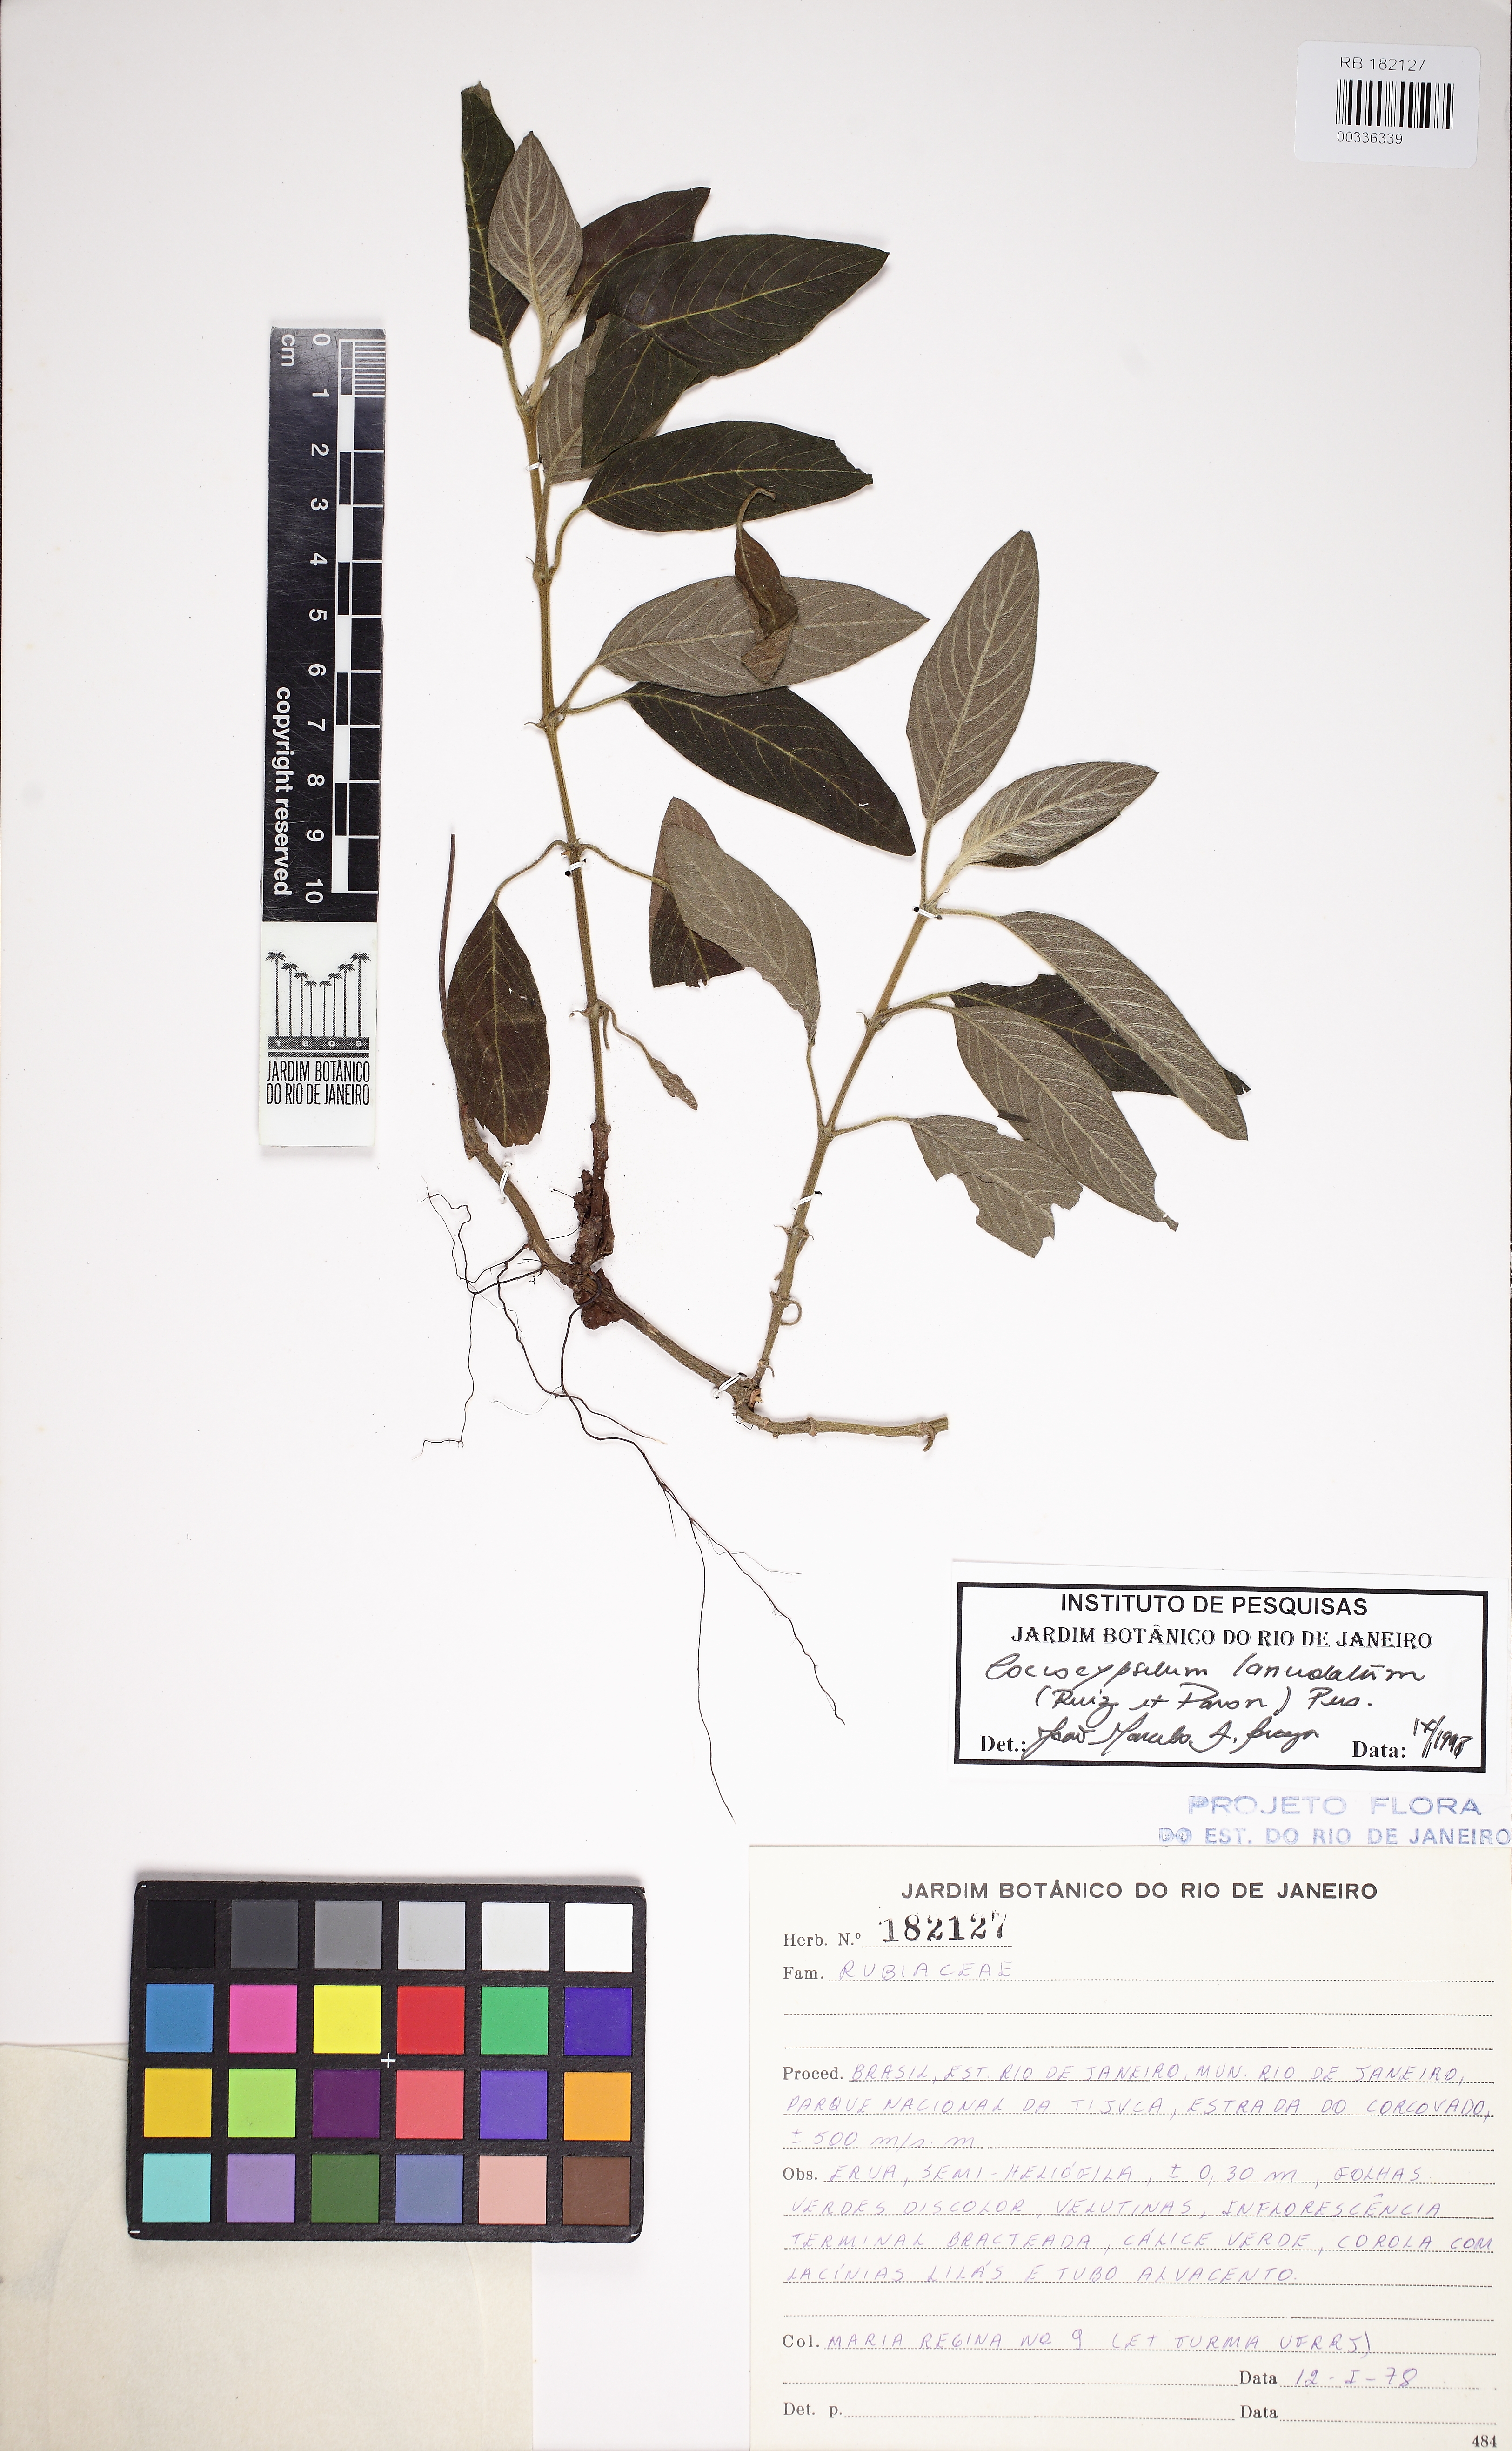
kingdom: Plantae
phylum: Tracheophyta
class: Magnoliopsida
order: Gentianales
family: Rubiaceae
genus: Coccocypselum
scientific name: Coccocypselum lanceolatum
